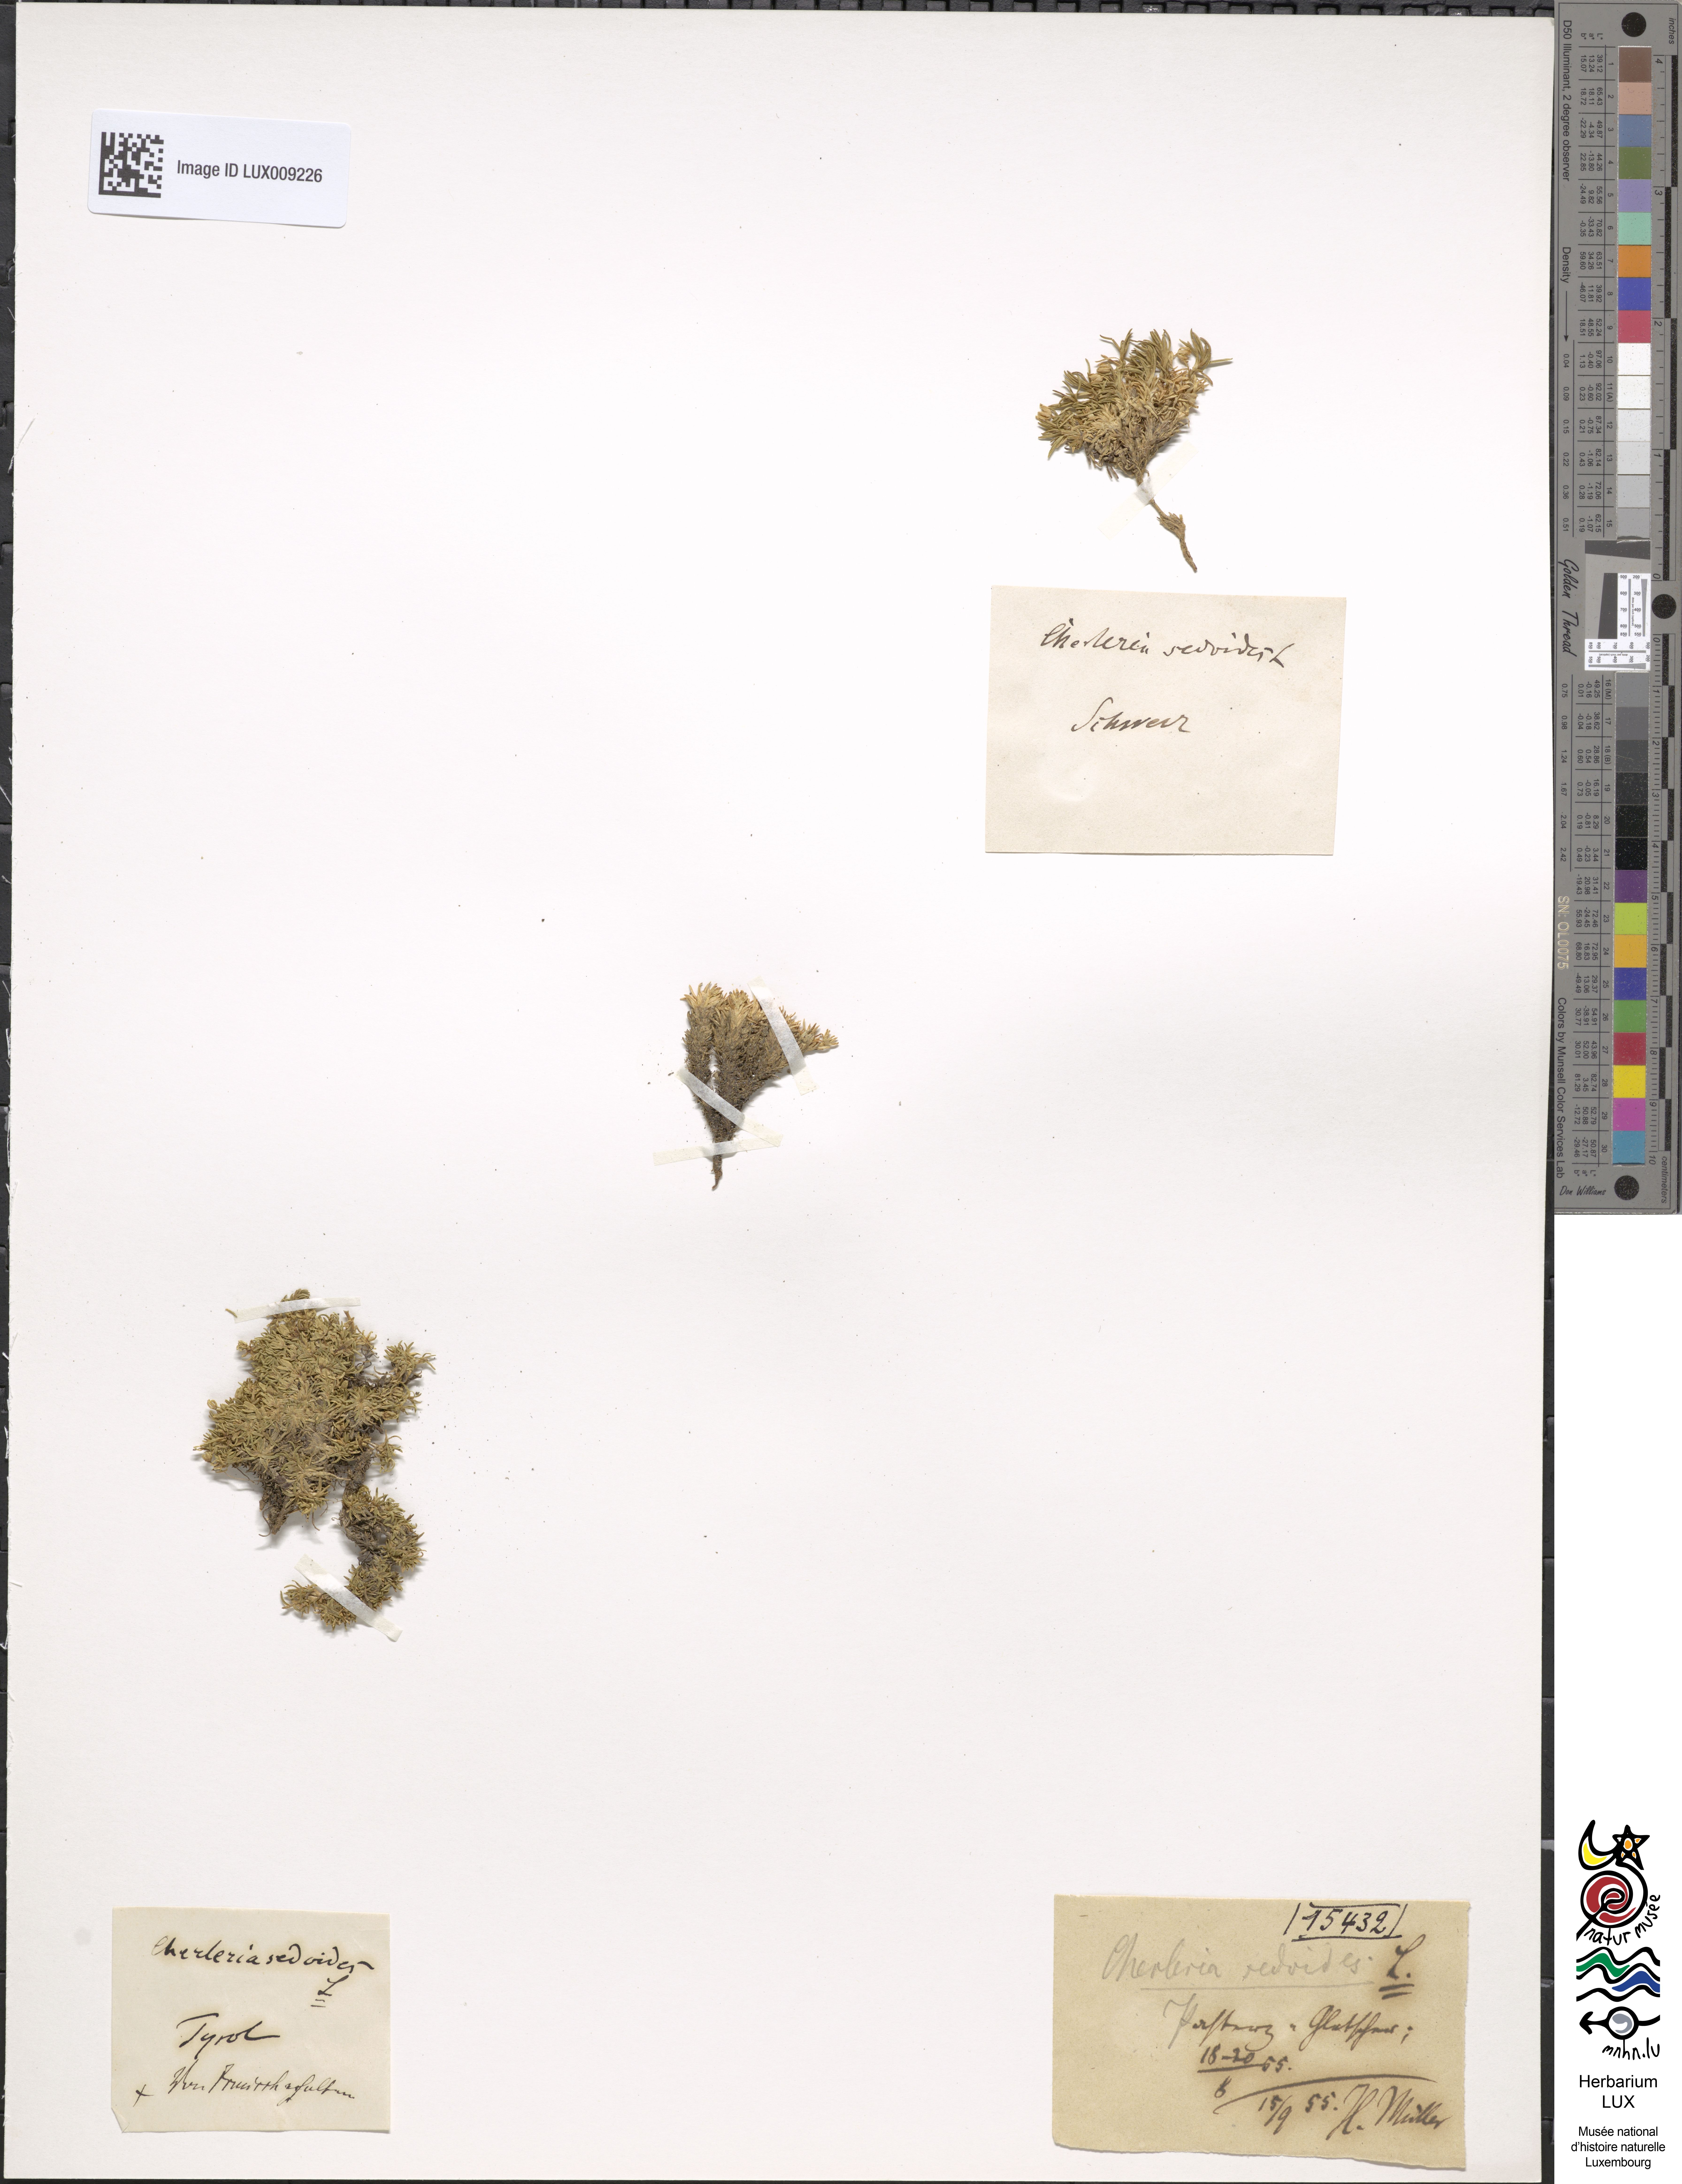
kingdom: Plantae
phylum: Tracheophyta
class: Magnoliopsida
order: Caryophyllales
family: Caryophyllaceae
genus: Cherleria
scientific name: Cherleria sedoides
